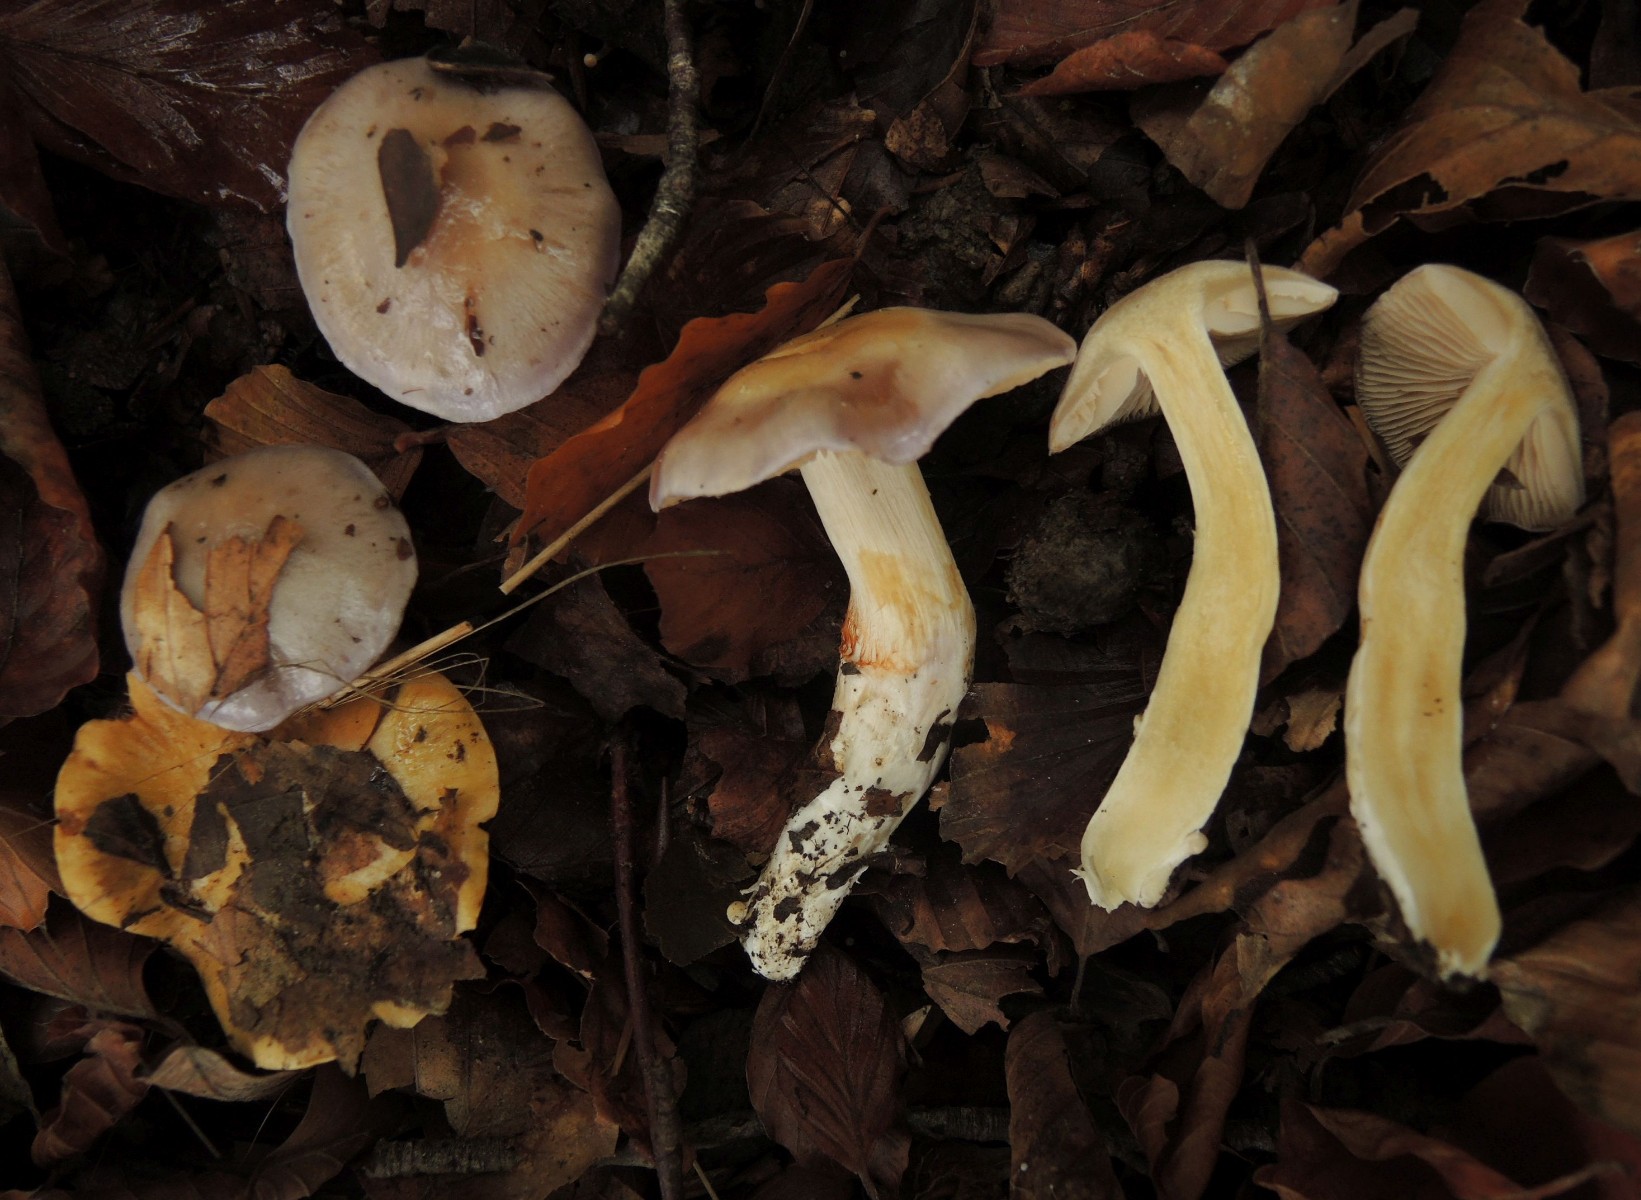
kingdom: Fungi
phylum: Basidiomycota
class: Agaricomycetes
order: Agaricales
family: Cortinariaceae
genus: Thaxterogaster
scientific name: Thaxterogaster croceocoeruleus
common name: blågullig slørhat
